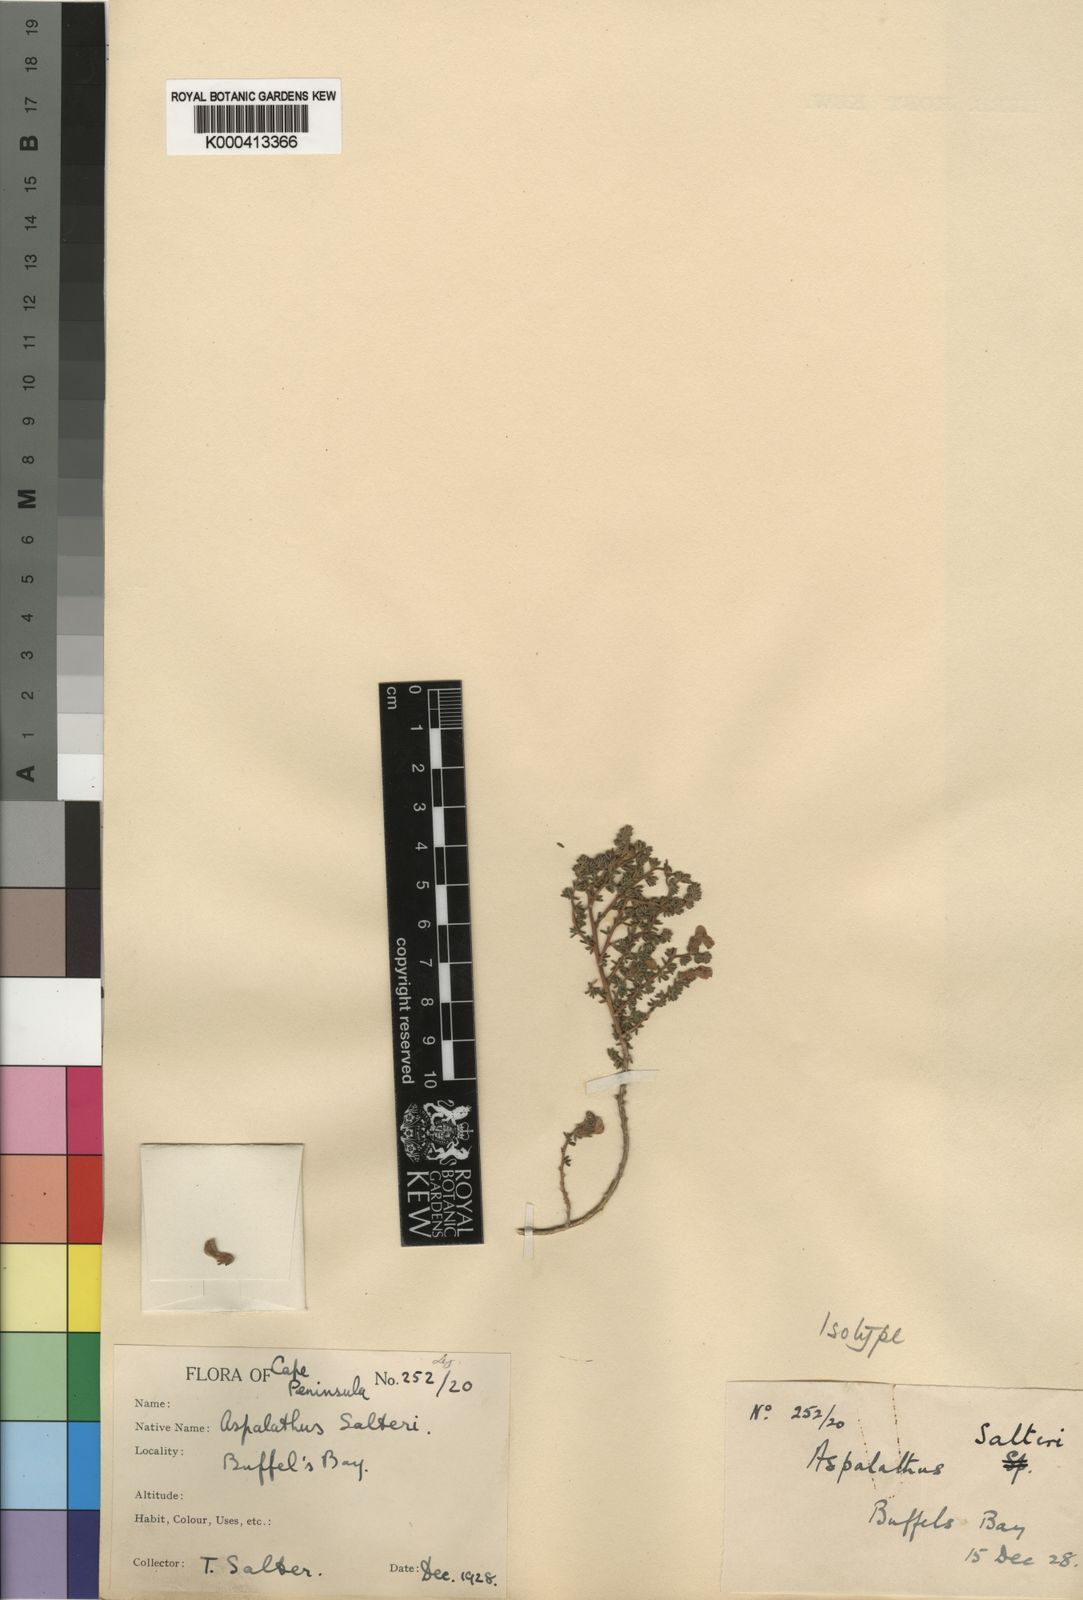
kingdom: Plantae
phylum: Tracheophyta
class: Magnoliopsida
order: Fabales
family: Fabaceae
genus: Aspalathus
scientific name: Aspalathus salteri
